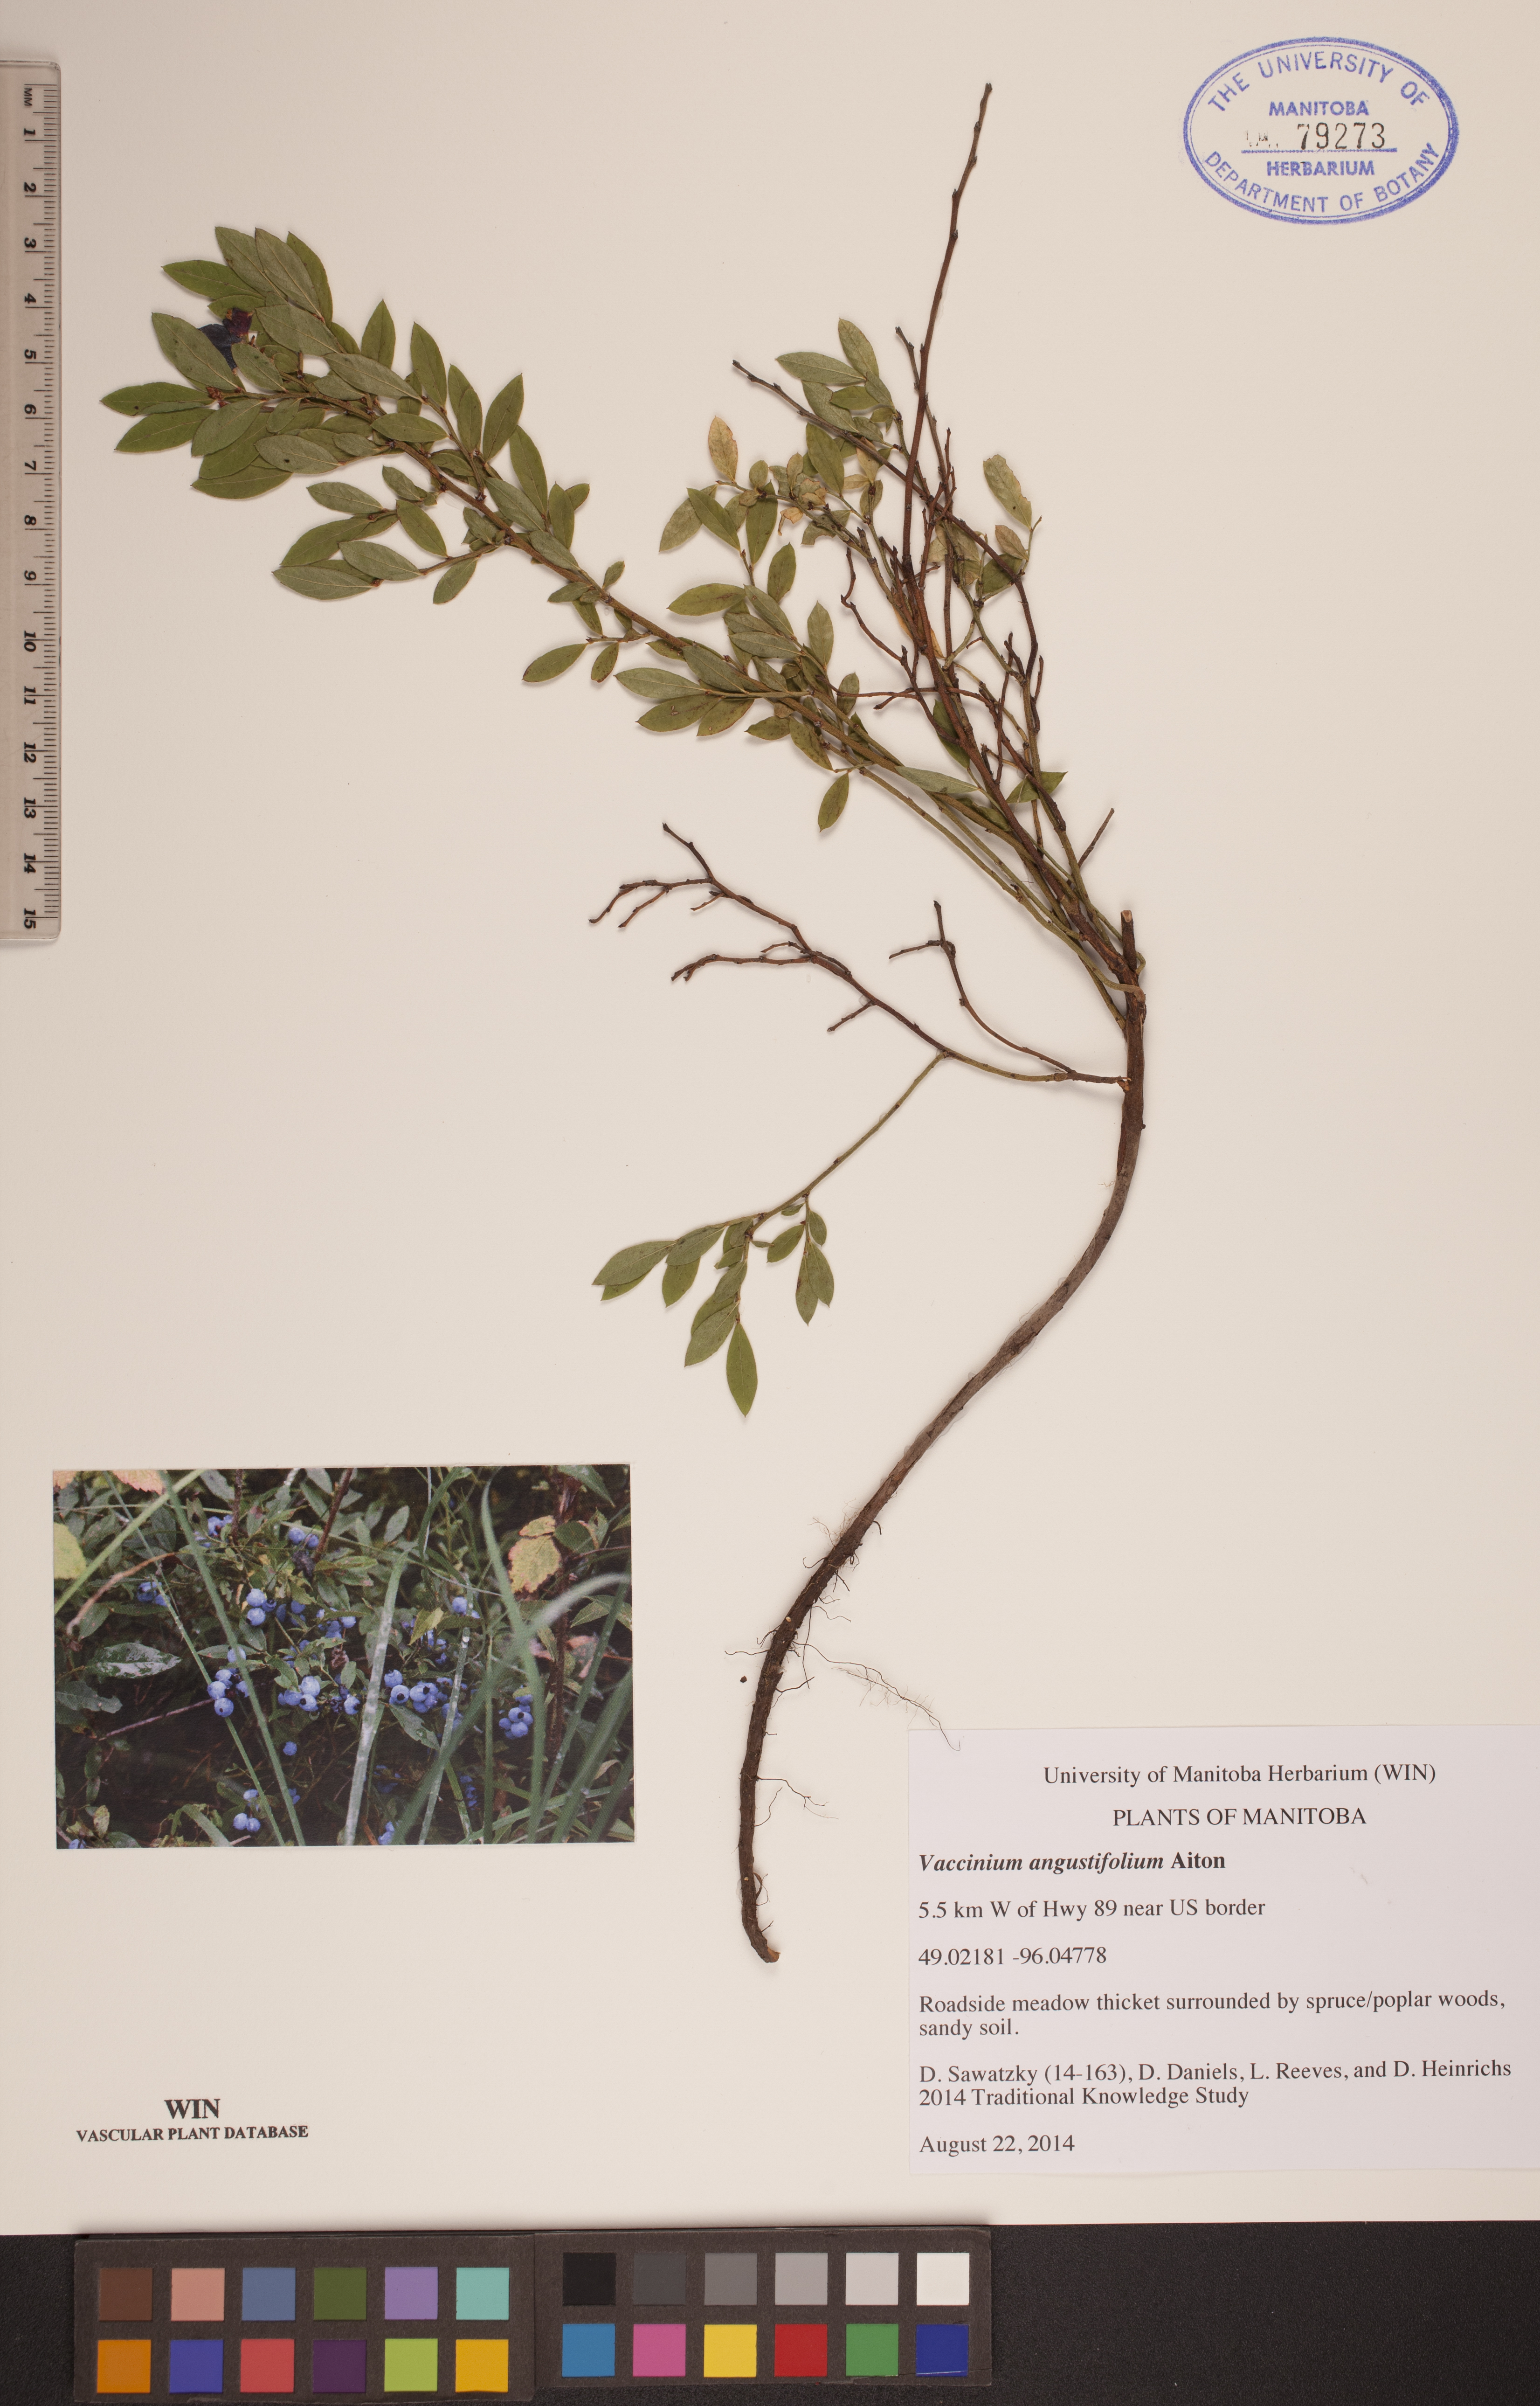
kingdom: Plantae
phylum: Tracheophyta
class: Magnoliopsida
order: Ericales
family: Ericaceae
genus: Vaccinium
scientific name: Vaccinium angustifolium
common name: Early lowbush blueberry
